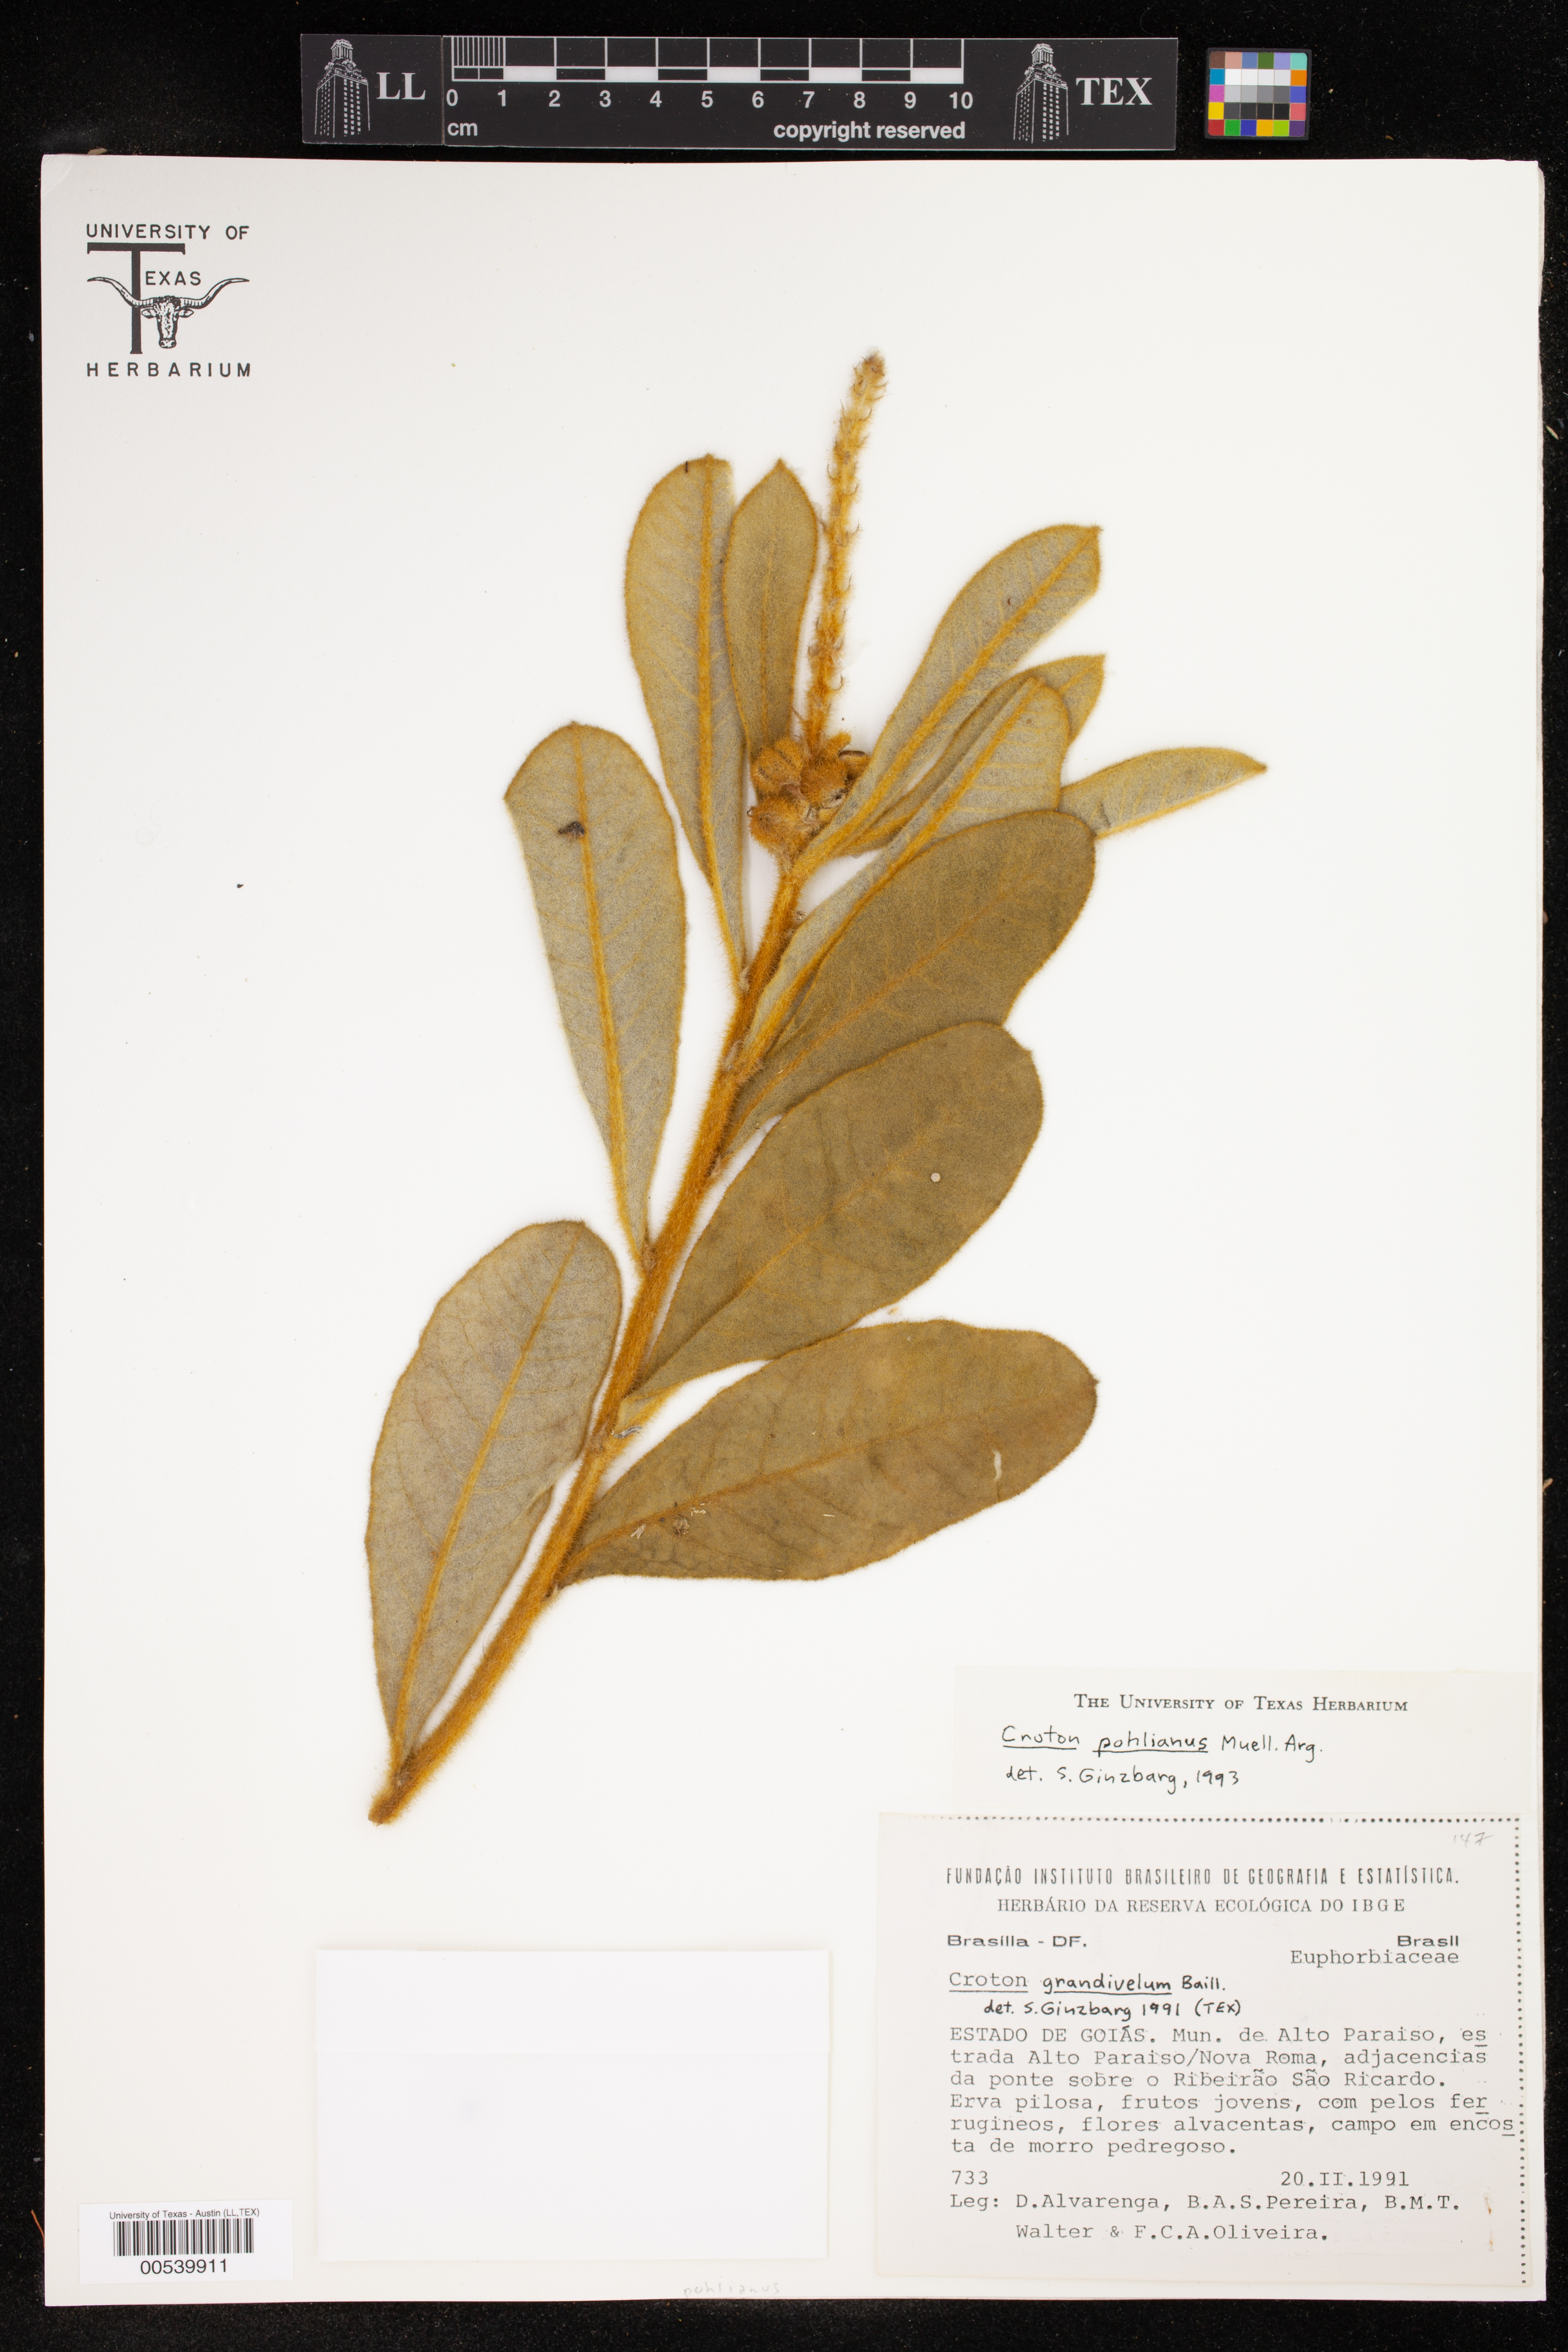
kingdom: Plantae
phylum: Tracheophyta
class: Magnoliopsida
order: Malpighiales
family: Euphorbiaceae
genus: Croton
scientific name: Croton fulvus
